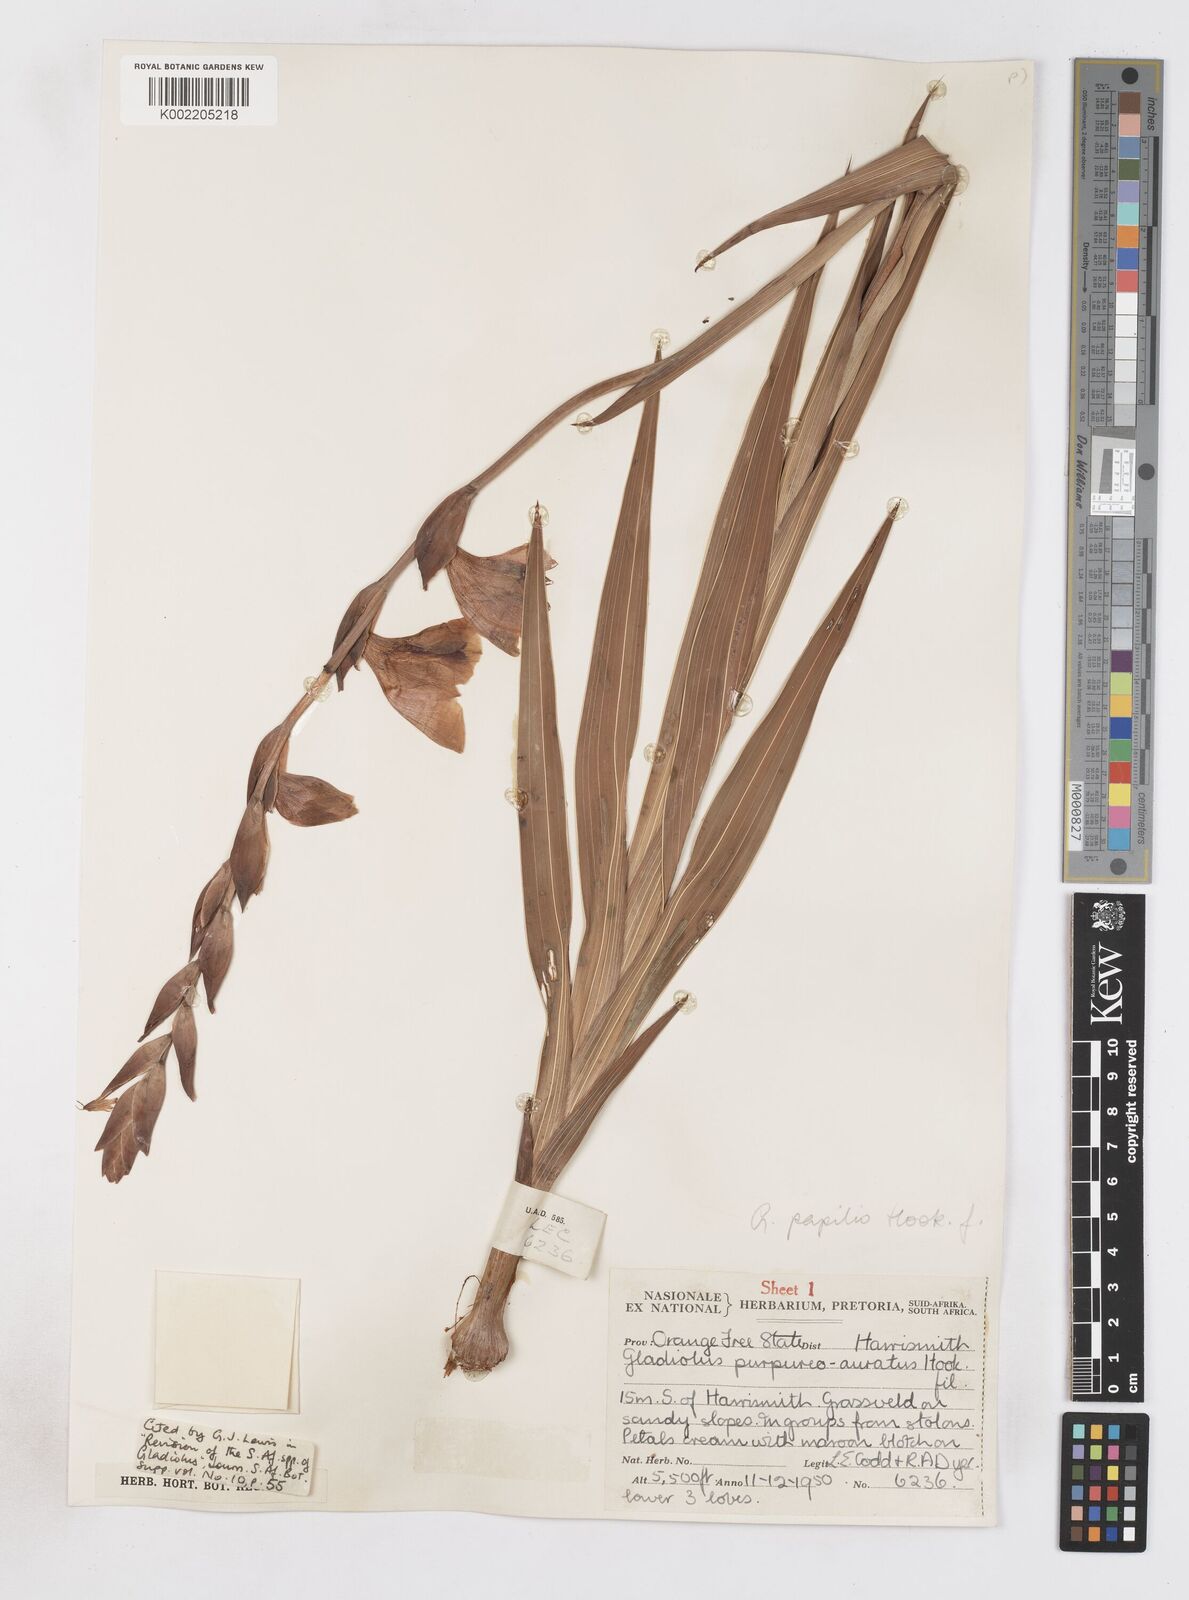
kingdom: Plantae
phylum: Tracheophyta
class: Liliopsida
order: Asparagales
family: Iridaceae
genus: Gladiolus
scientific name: Gladiolus papilio
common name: Goldblotch gladiolus
